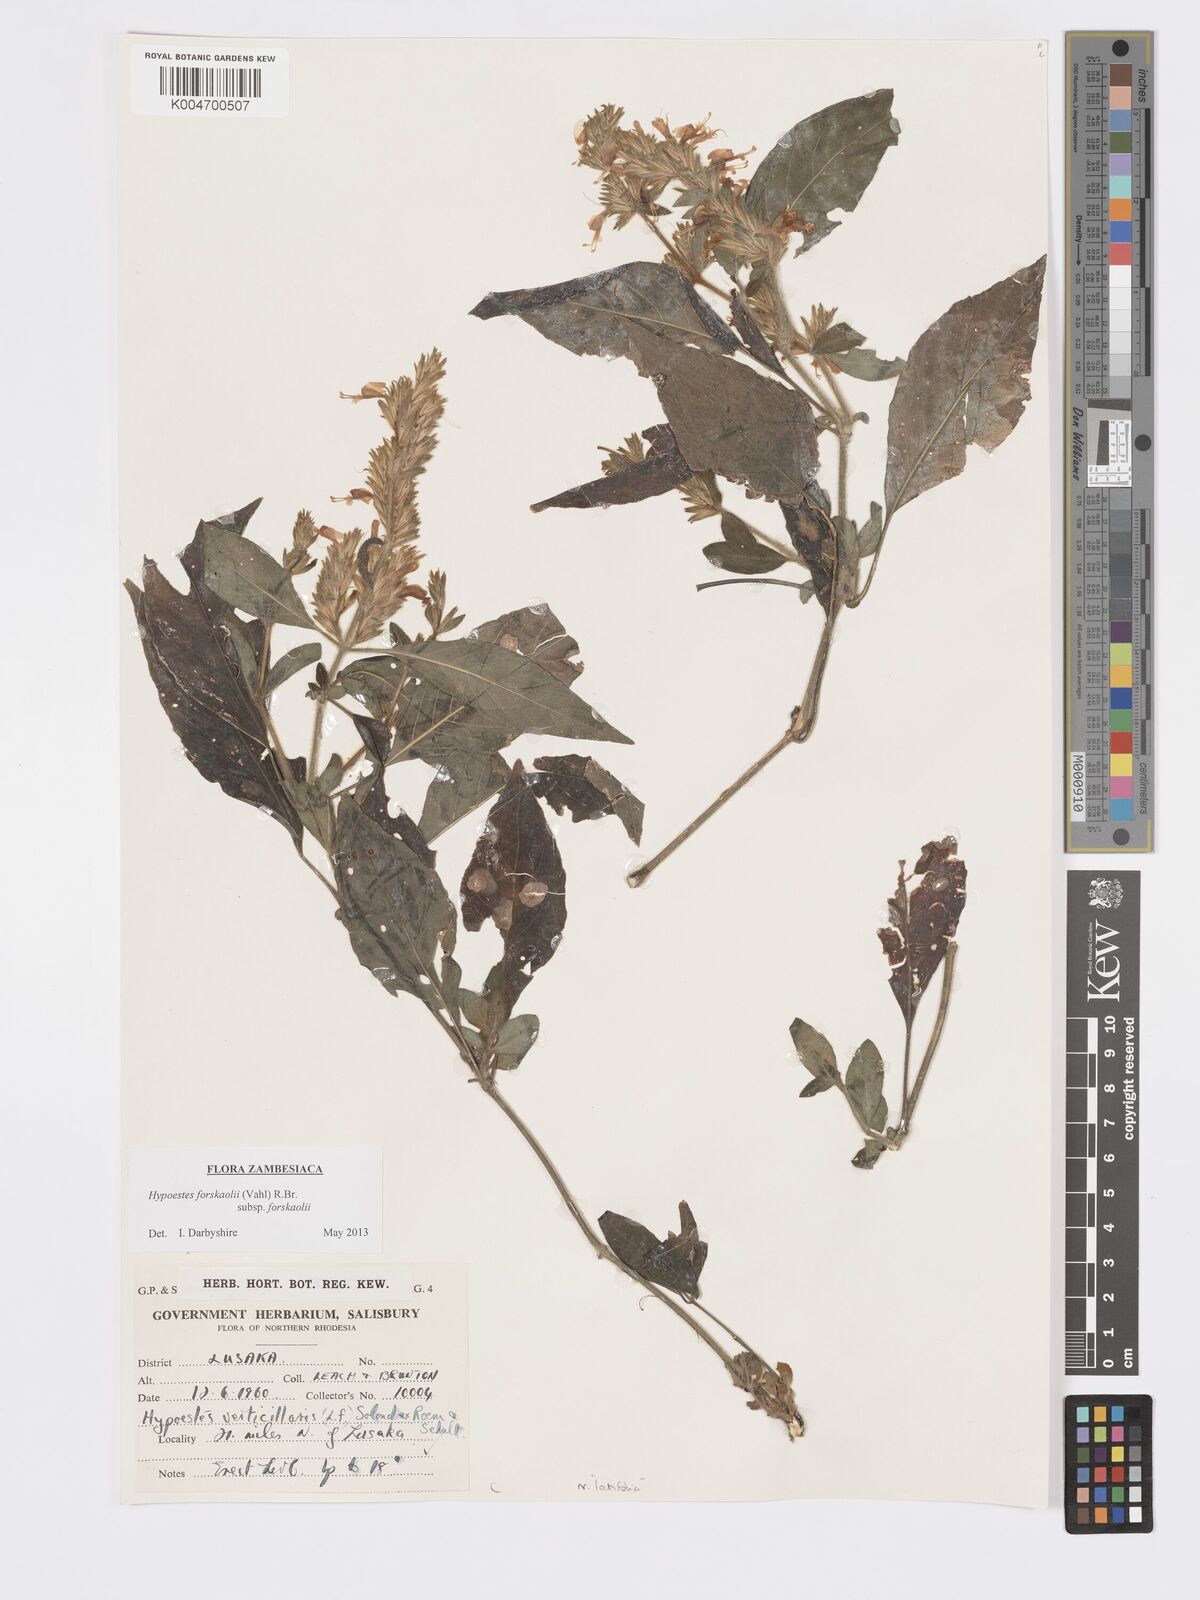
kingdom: Plantae
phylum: Tracheophyta
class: Magnoliopsida
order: Lamiales
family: Acanthaceae
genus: Hypoestes
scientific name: Hypoestes forskaolii
